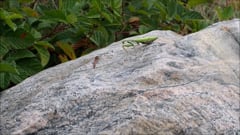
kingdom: Animalia
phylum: Arthropoda
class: Insecta
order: Mantodea
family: Mantidae
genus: Mantis
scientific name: Mantis religiosa
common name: Praying mantis
